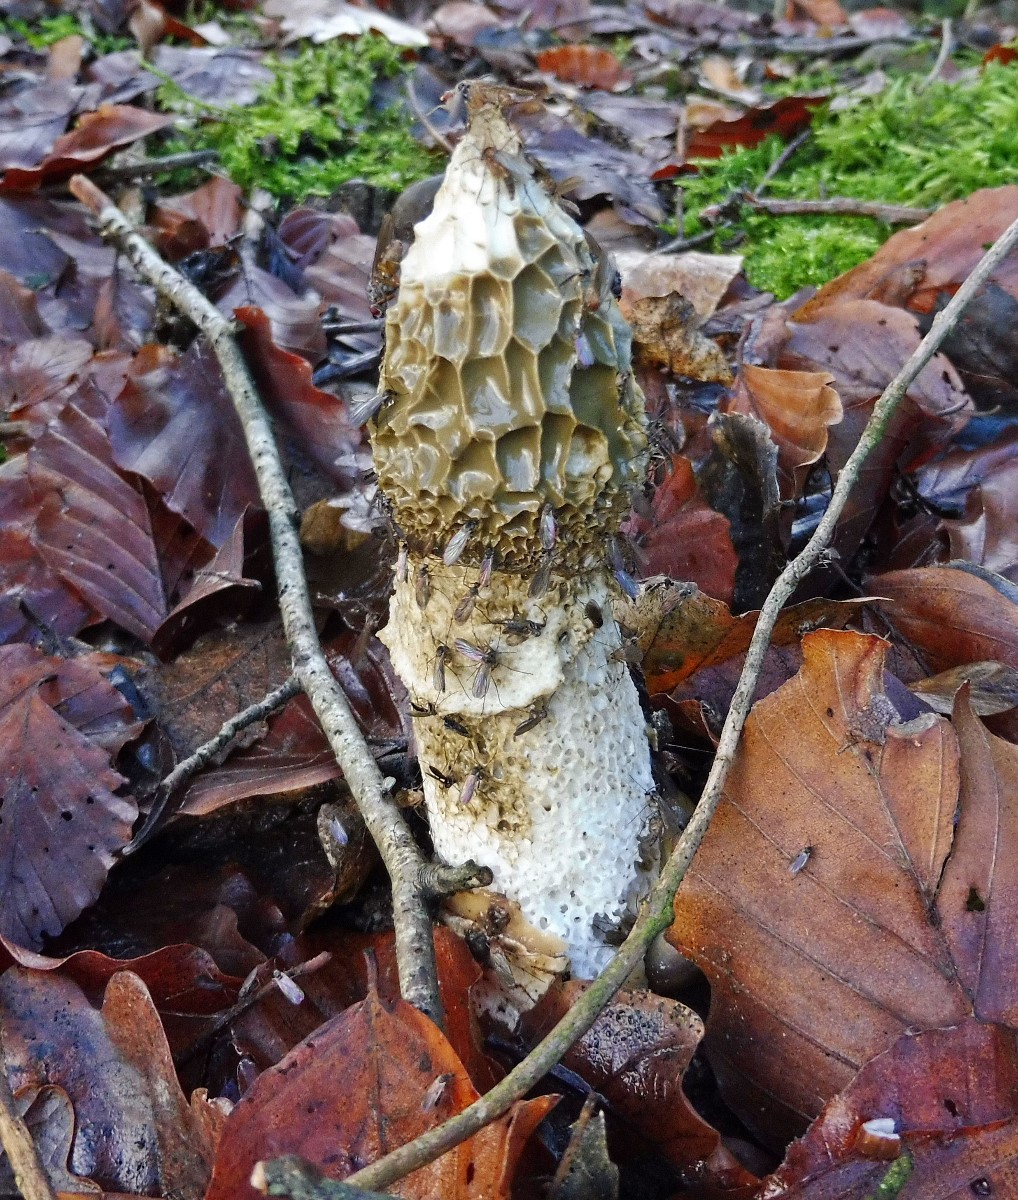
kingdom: Fungi
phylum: Basidiomycota
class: Agaricomycetes
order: Phallales
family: Phallaceae
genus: Phallus
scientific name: Phallus impudicus
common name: almindelig stinksvamp
